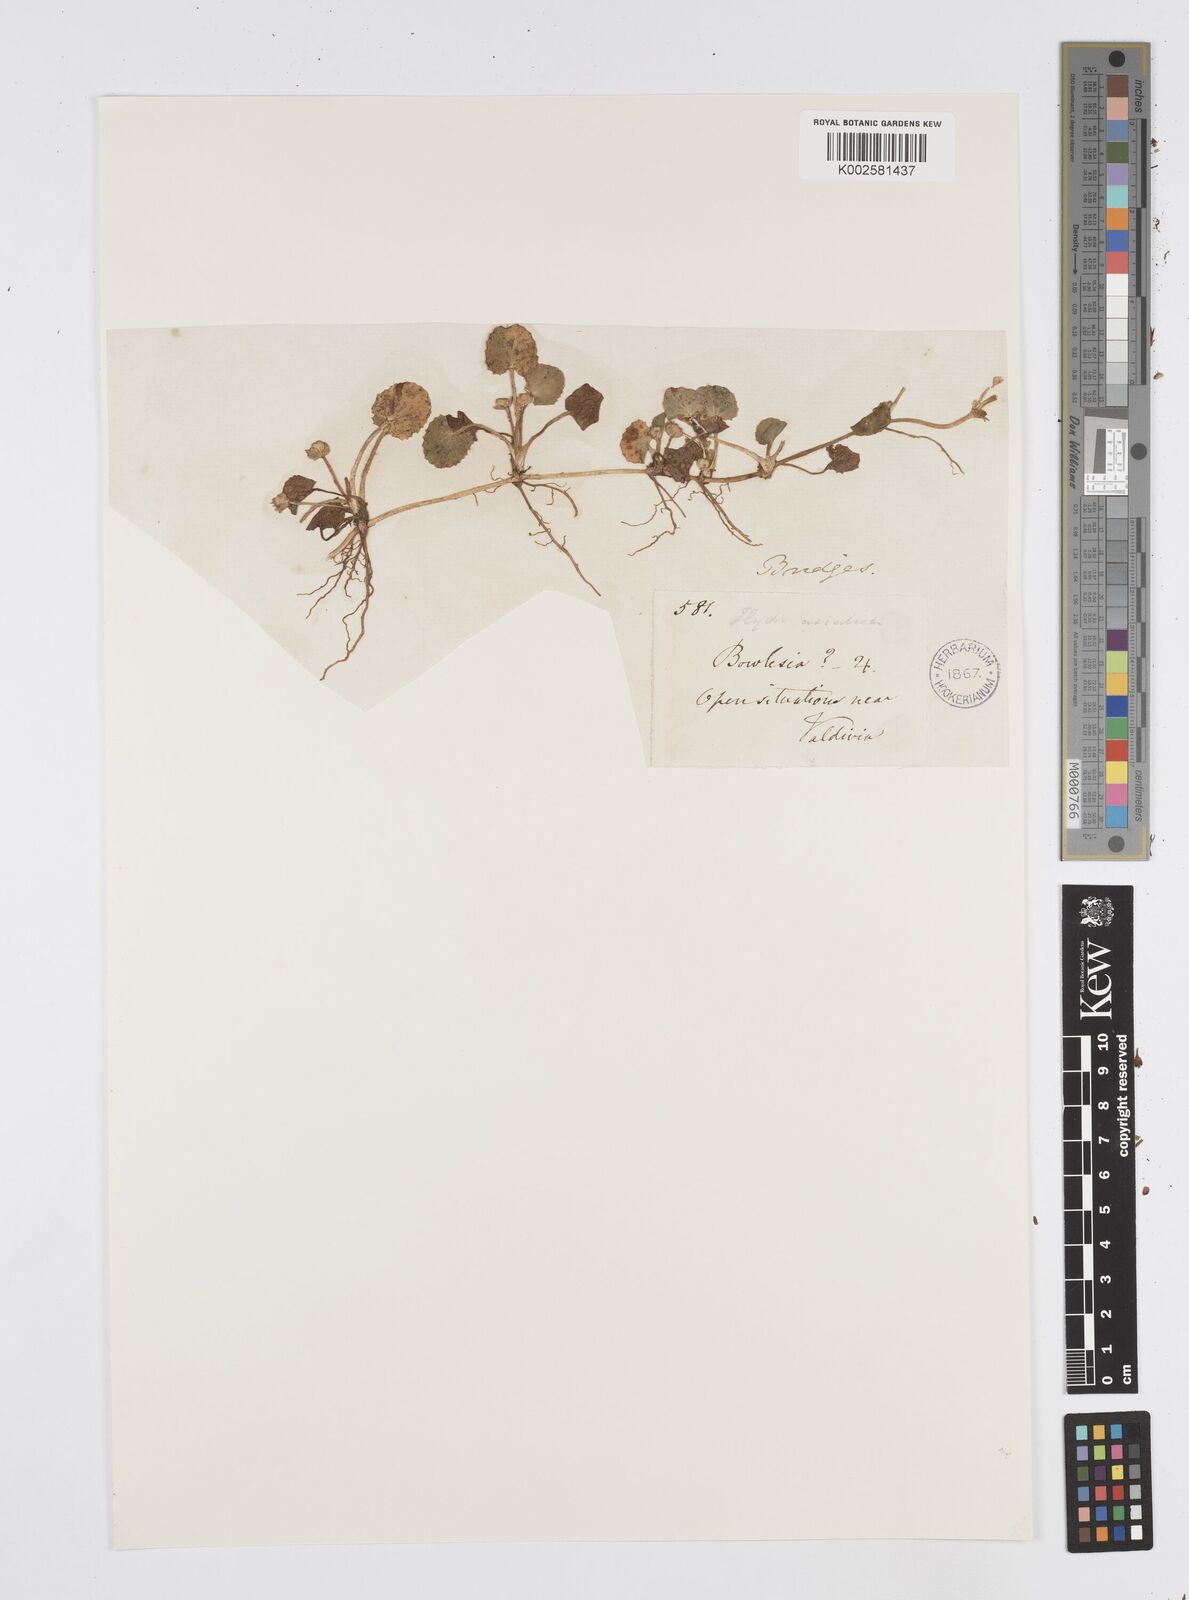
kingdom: Plantae
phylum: Tracheophyta
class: Magnoliopsida
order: Apiales
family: Apiaceae
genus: Centella
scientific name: Centella erecta
